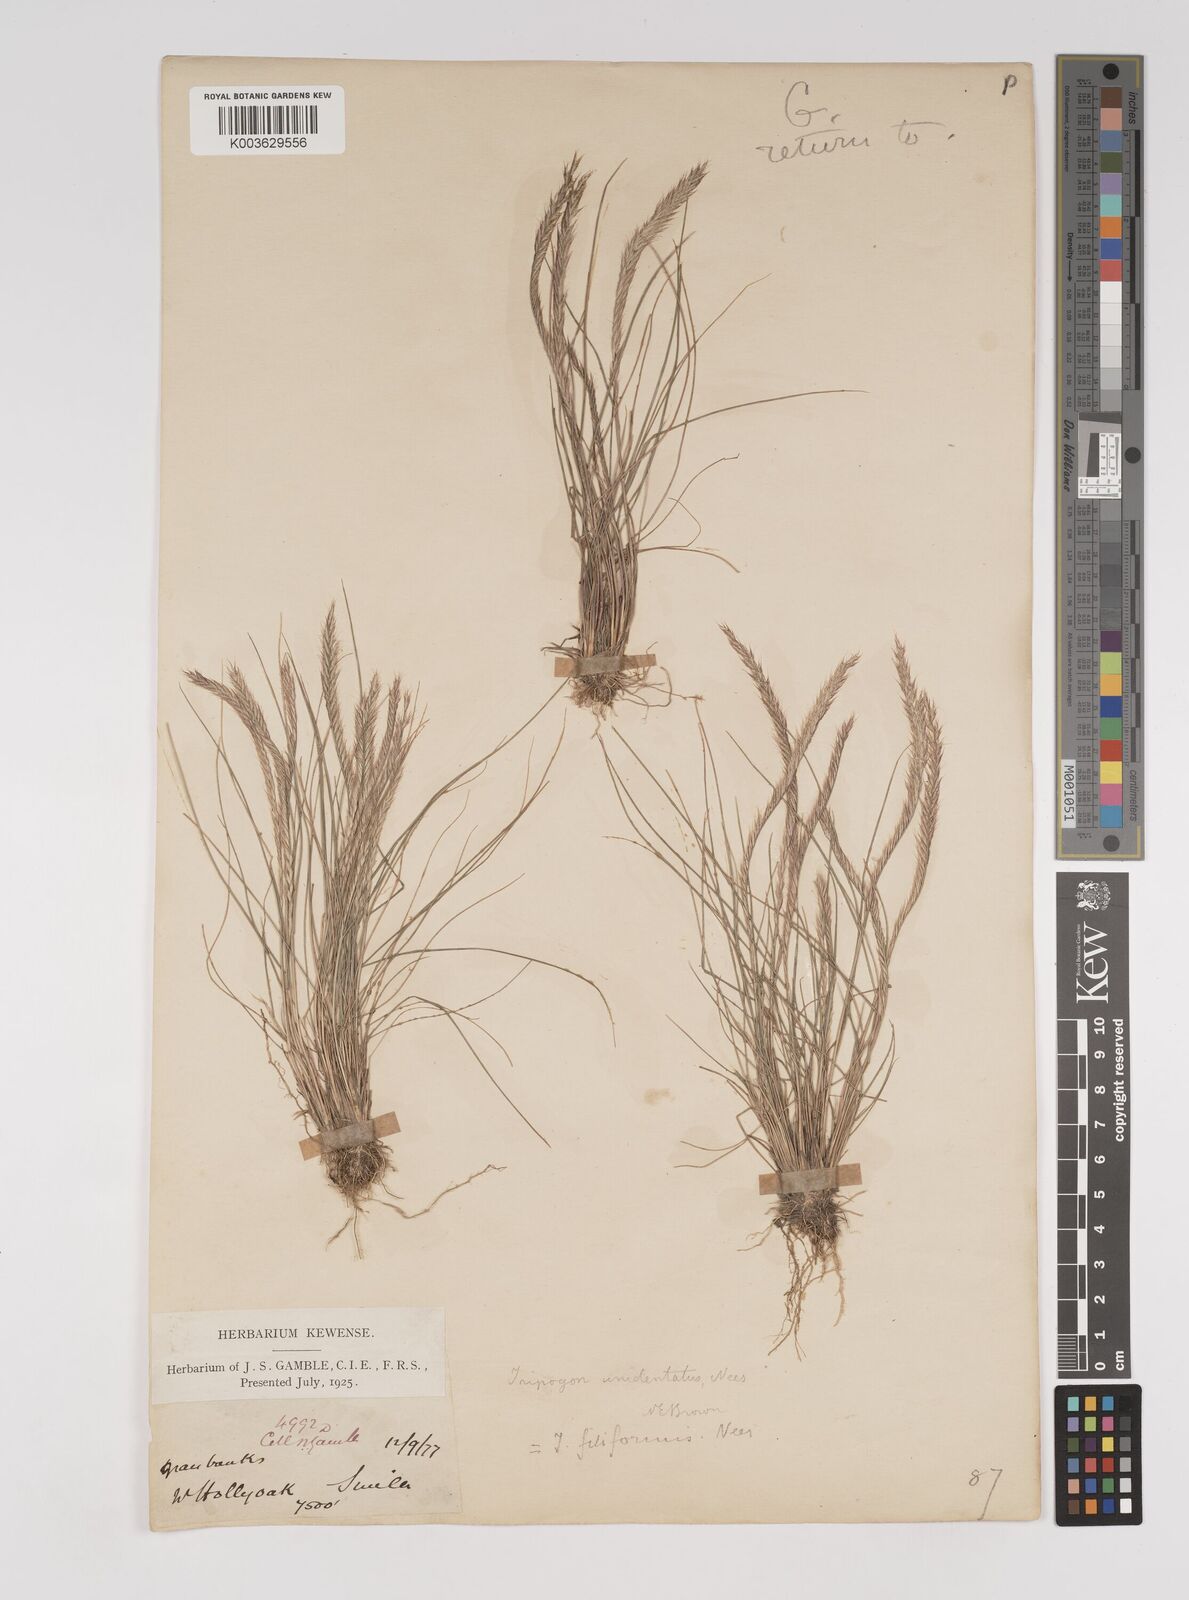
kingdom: Plantae
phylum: Tracheophyta
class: Liliopsida
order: Poales
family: Poaceae
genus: Tripogon
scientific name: Tripogon filiformis
